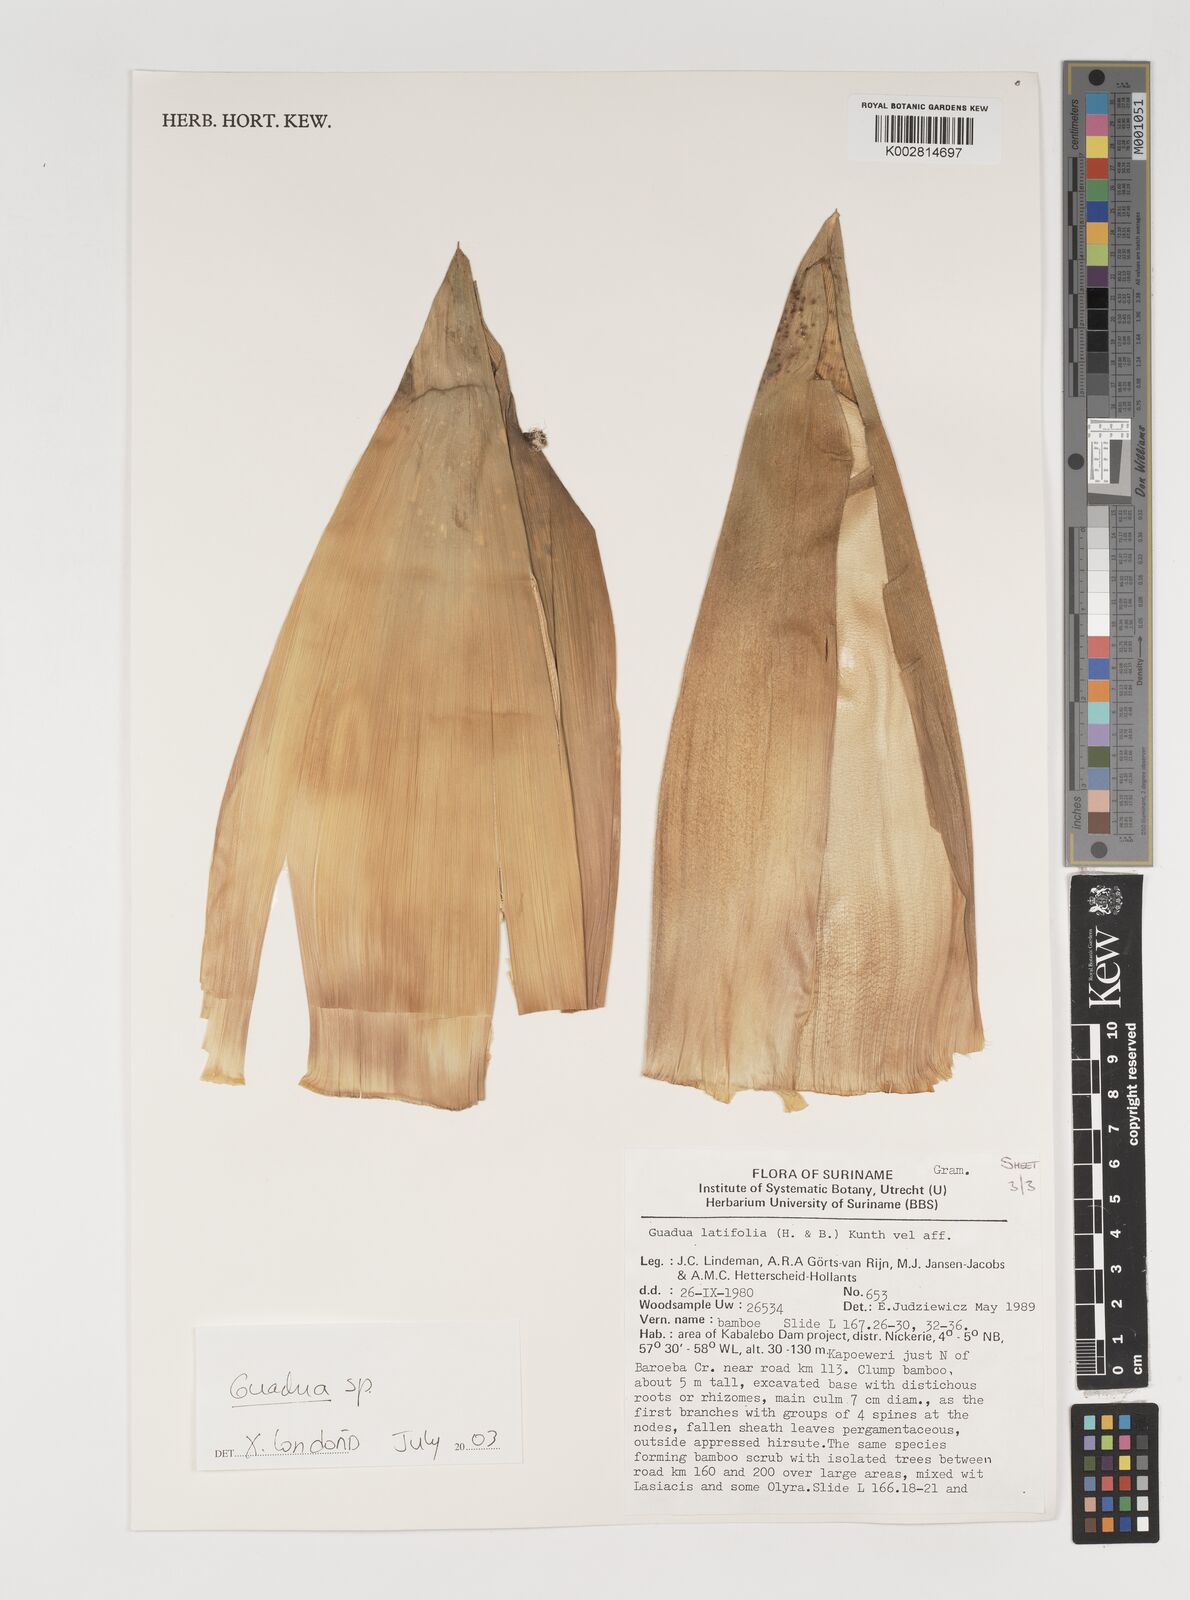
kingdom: Plantae
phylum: Tracheophyta
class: Liliopsida
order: Poales
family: Poaceae
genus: Guadua
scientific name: Guadua
